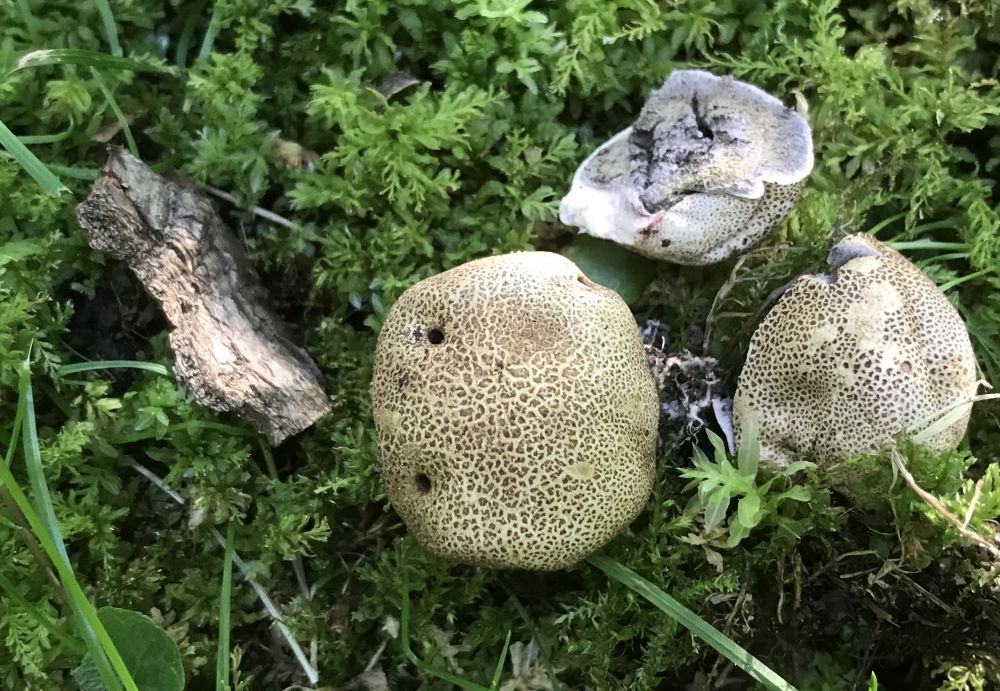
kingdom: Fungi
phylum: Basidiomycota
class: Agaricomycetes
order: Boletales
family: Sclerodermataceae
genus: Scleroderma
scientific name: Scleroderma areolatum
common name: plettet bruskbold
